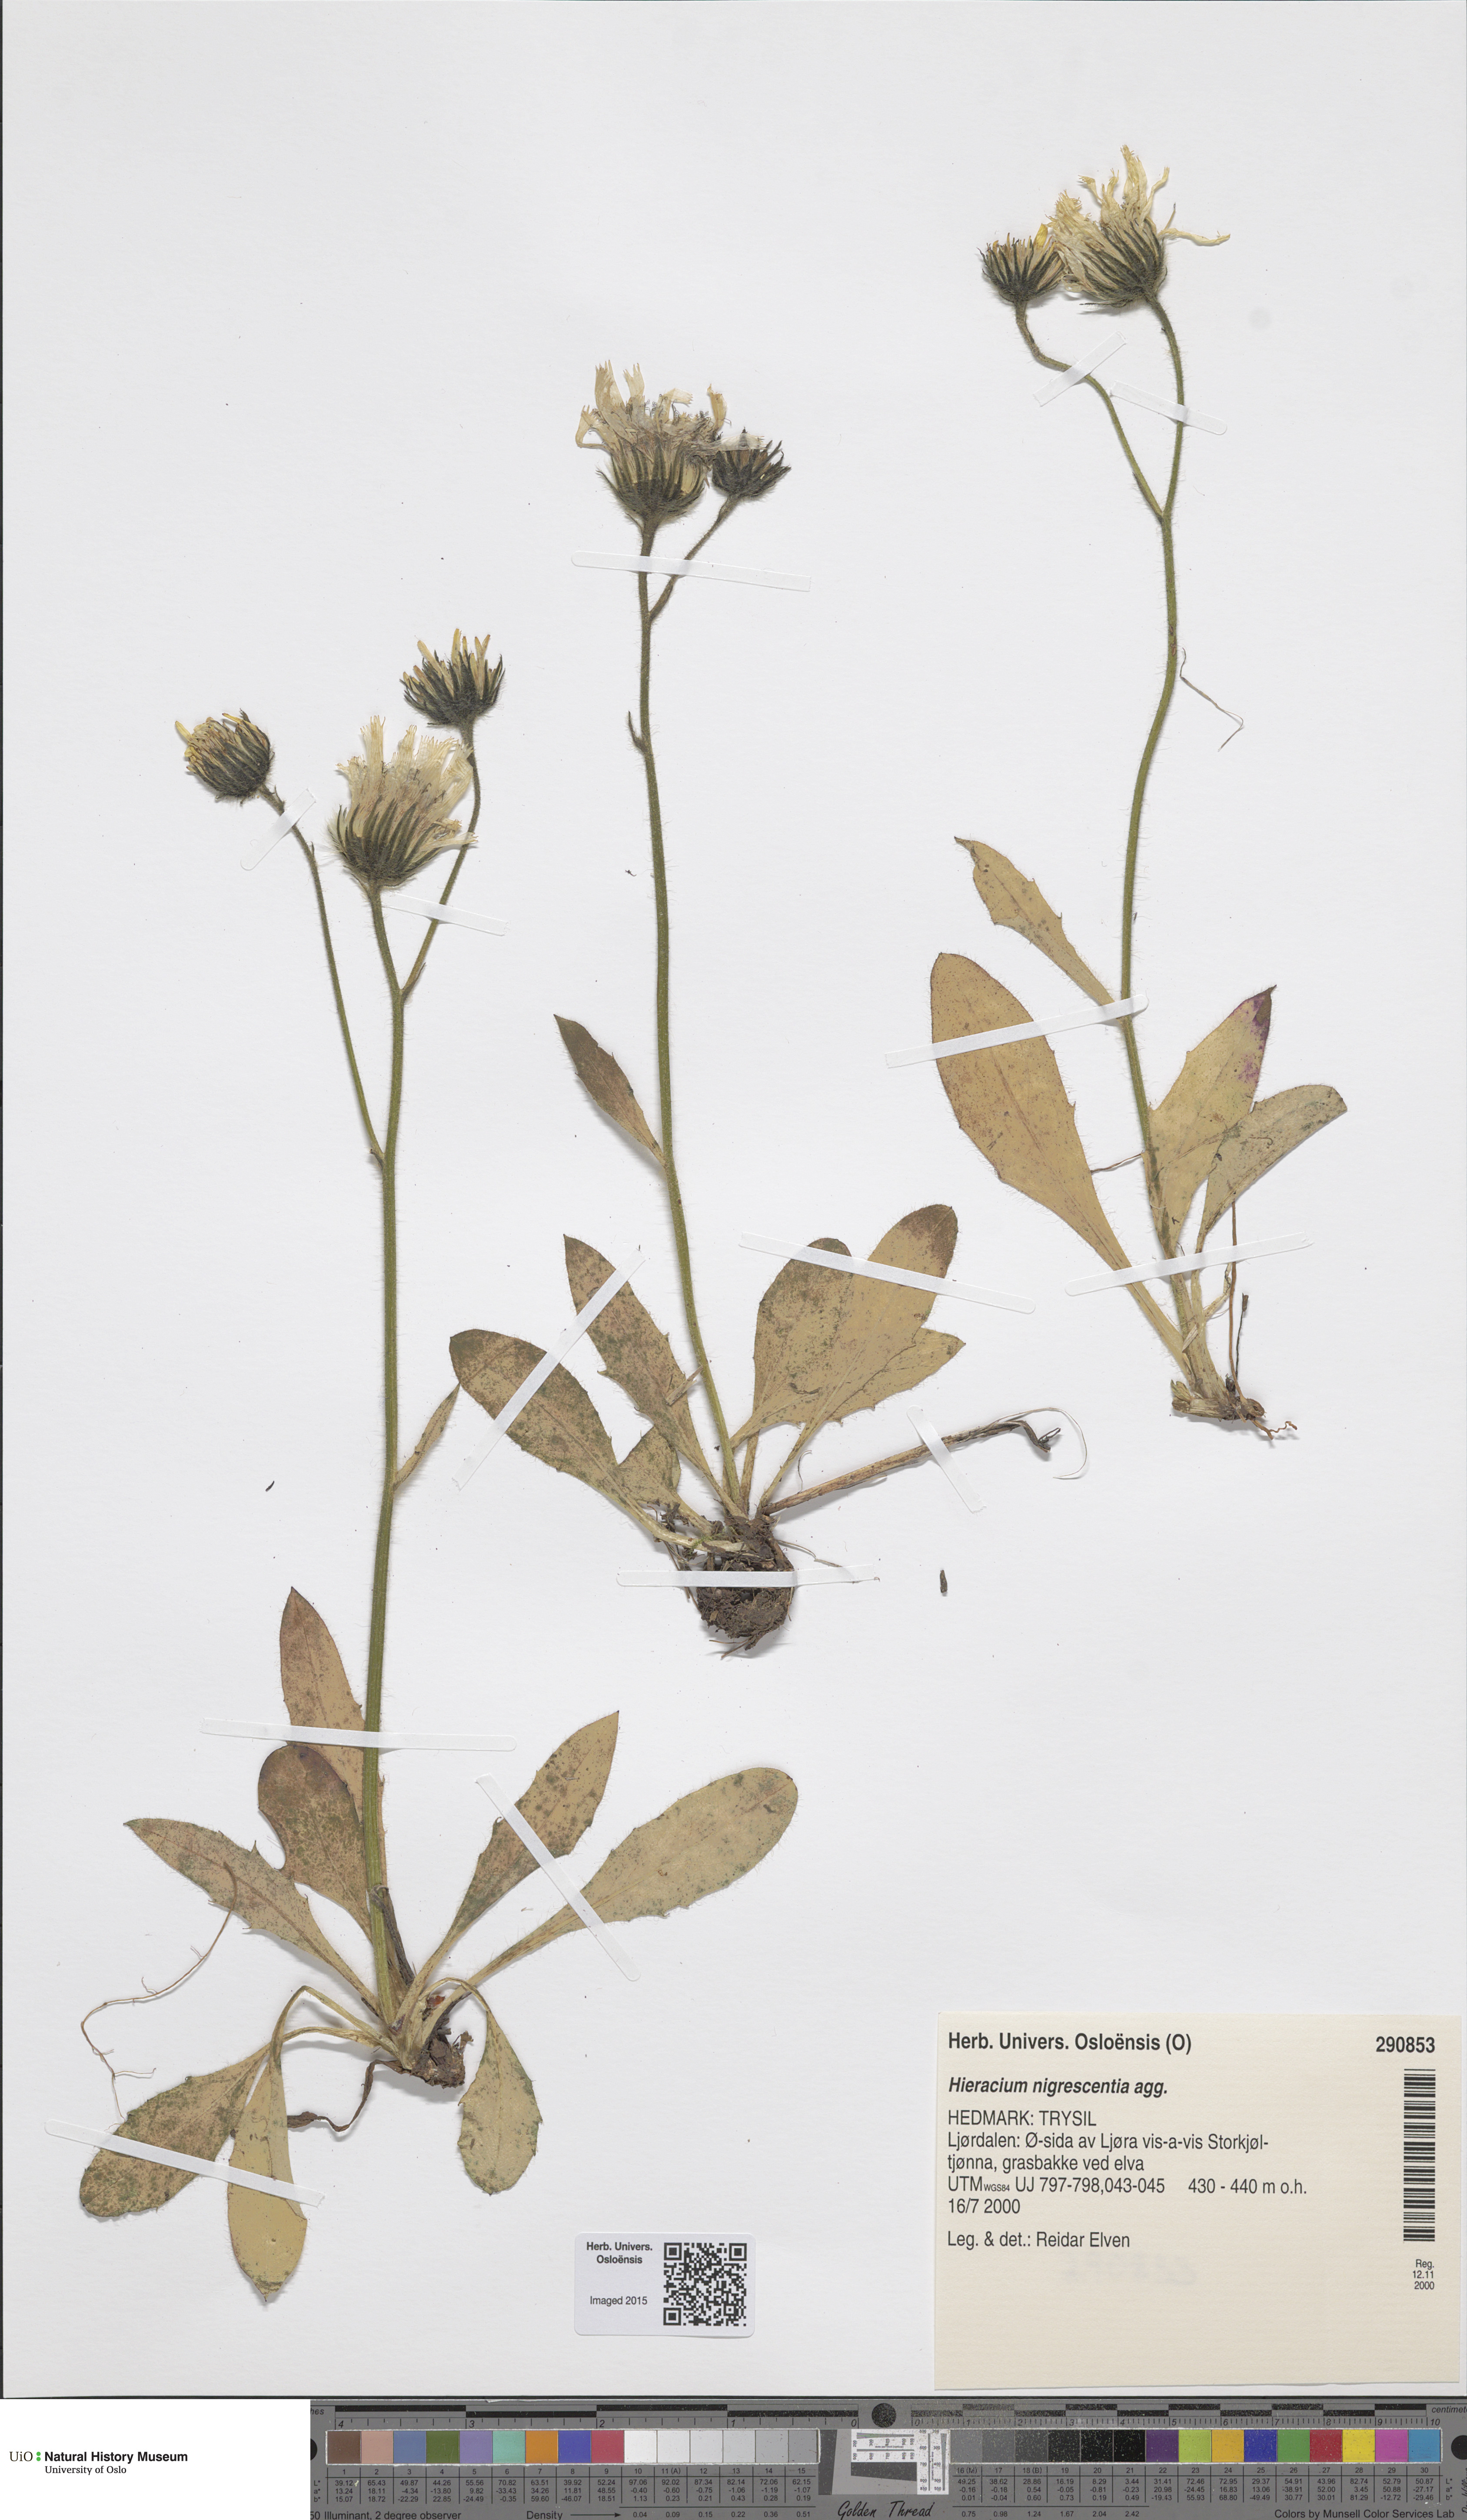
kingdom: Plantae
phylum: Tracheophyta
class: Magnoliopsida
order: Asterales
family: Asteraceae
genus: Hieracium
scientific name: Hieracium umbrosum
